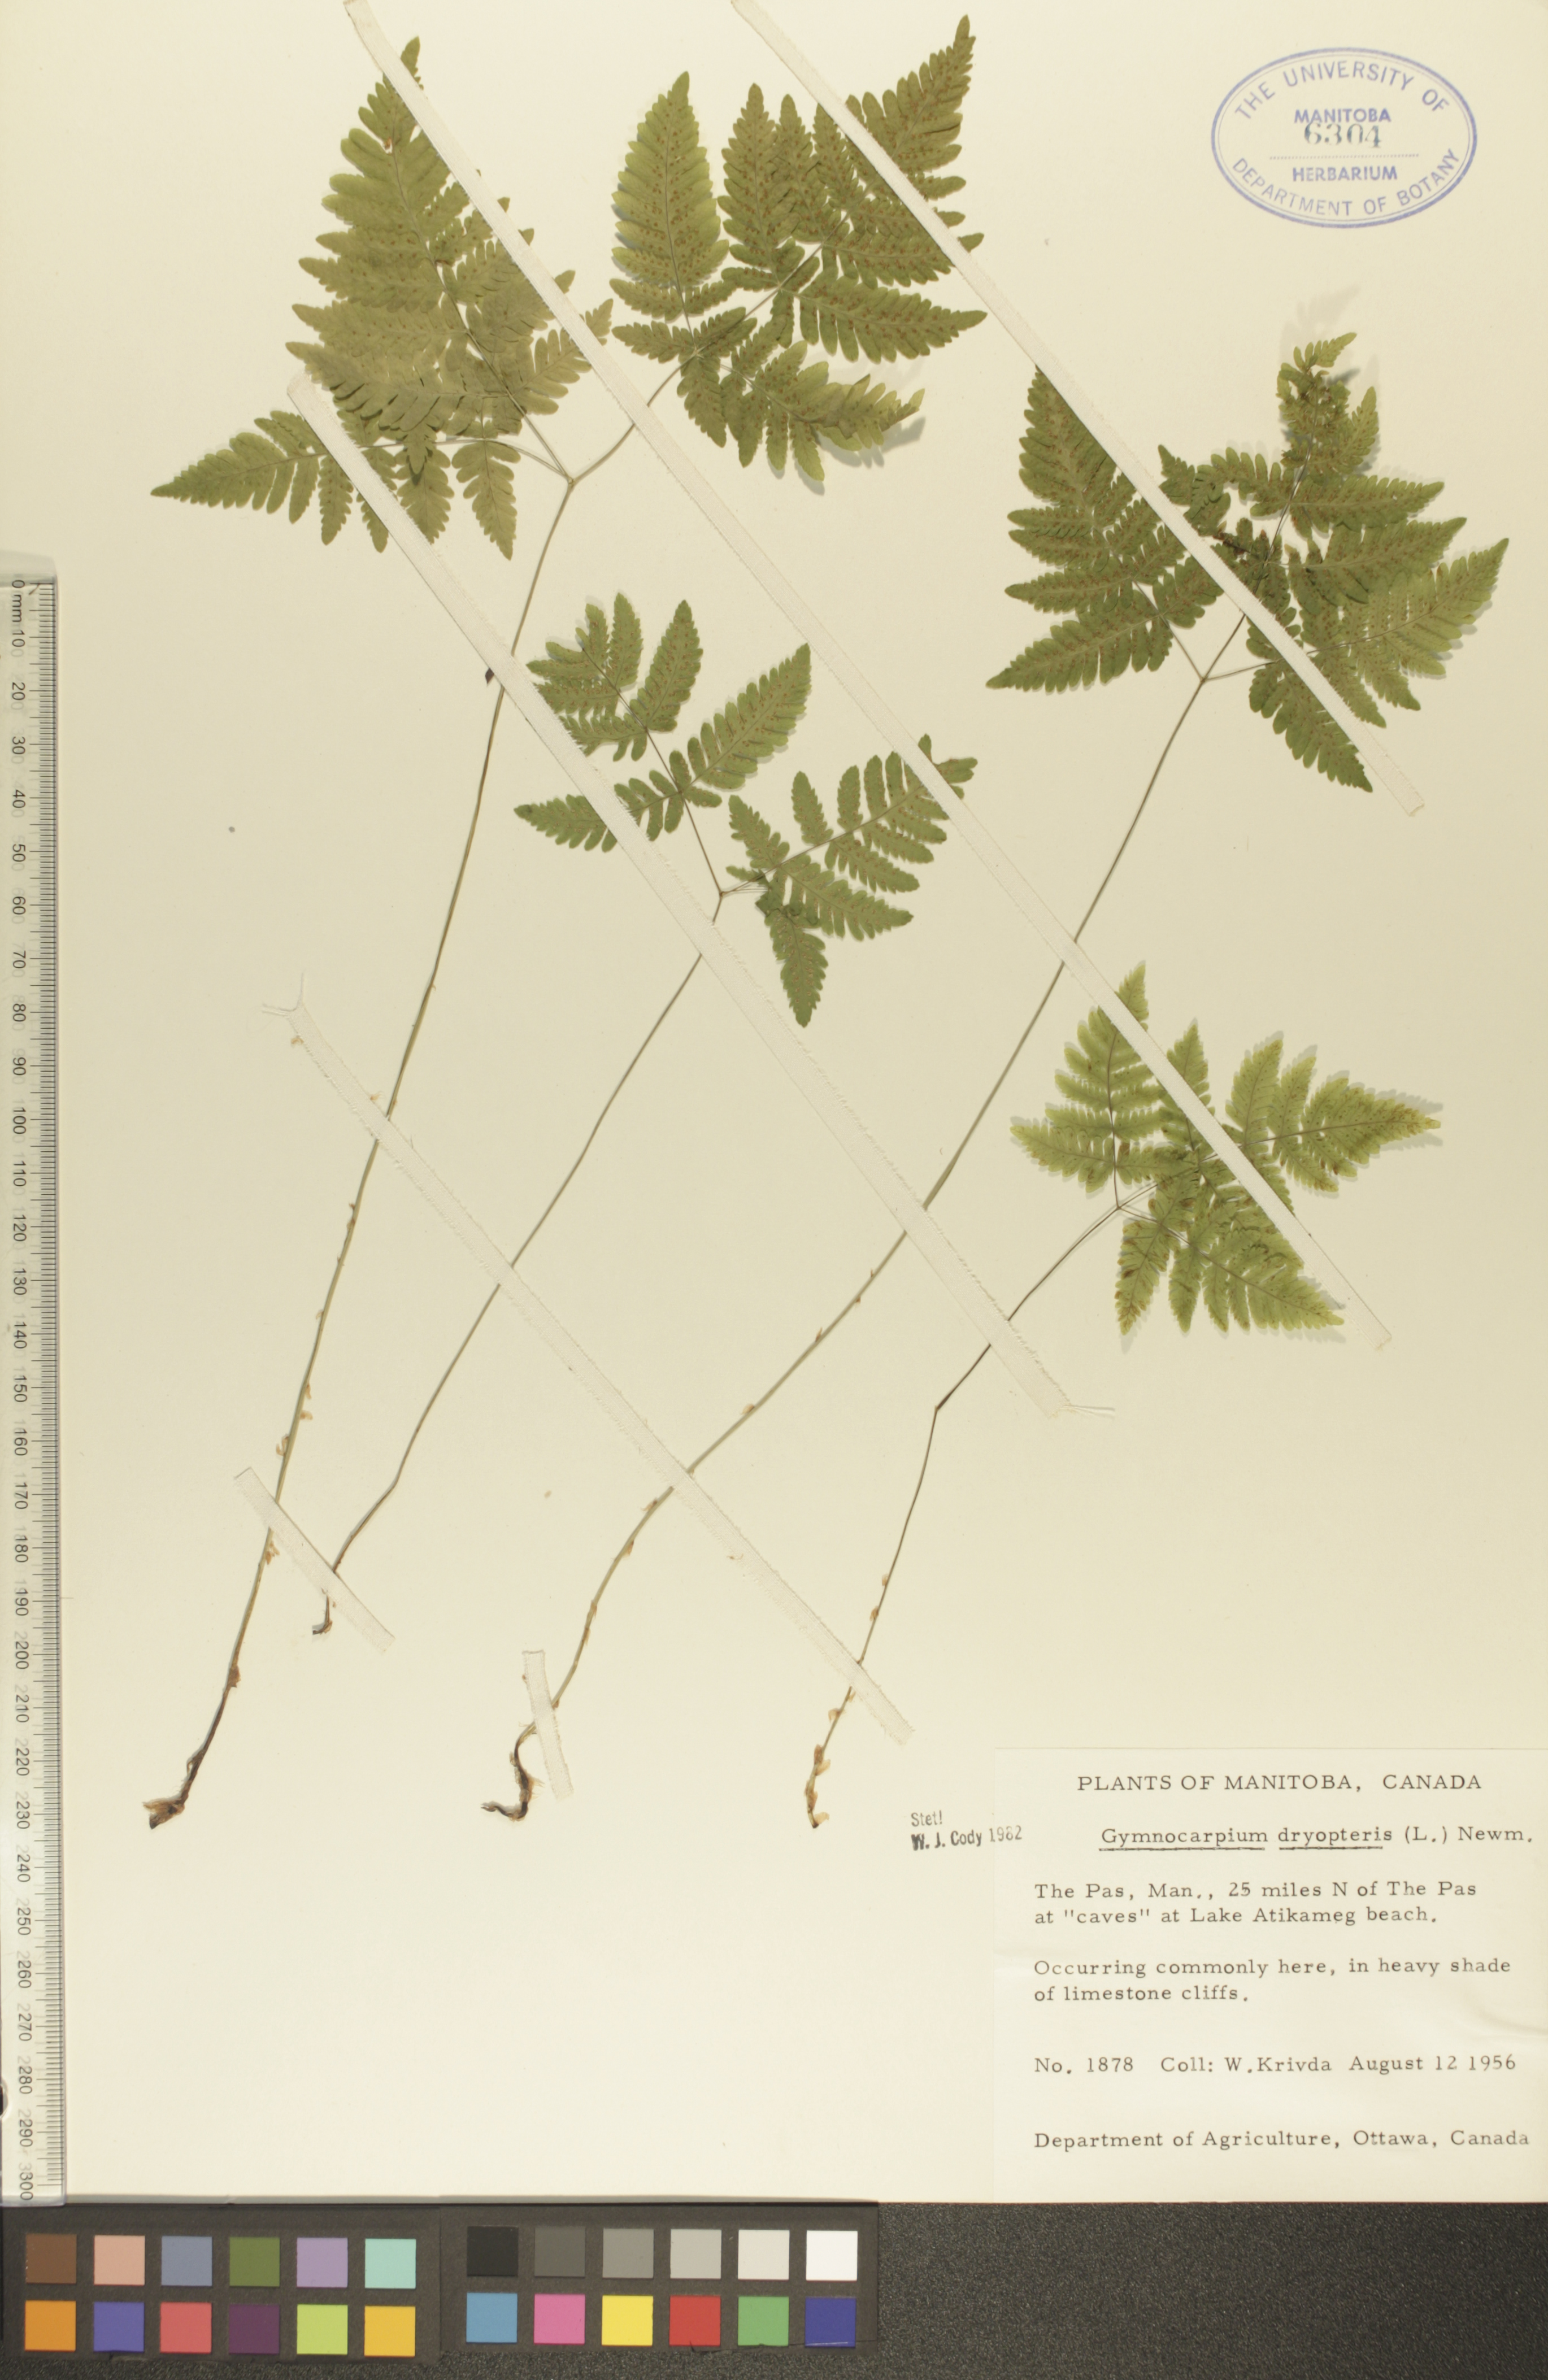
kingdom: Plantae
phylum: Tracheophyta
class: Polypodiopsida
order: Polypodiales
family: Cystopteridaceae
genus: Gymnocarpium
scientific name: Gymnocarpium dryopteris
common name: Oak fern
